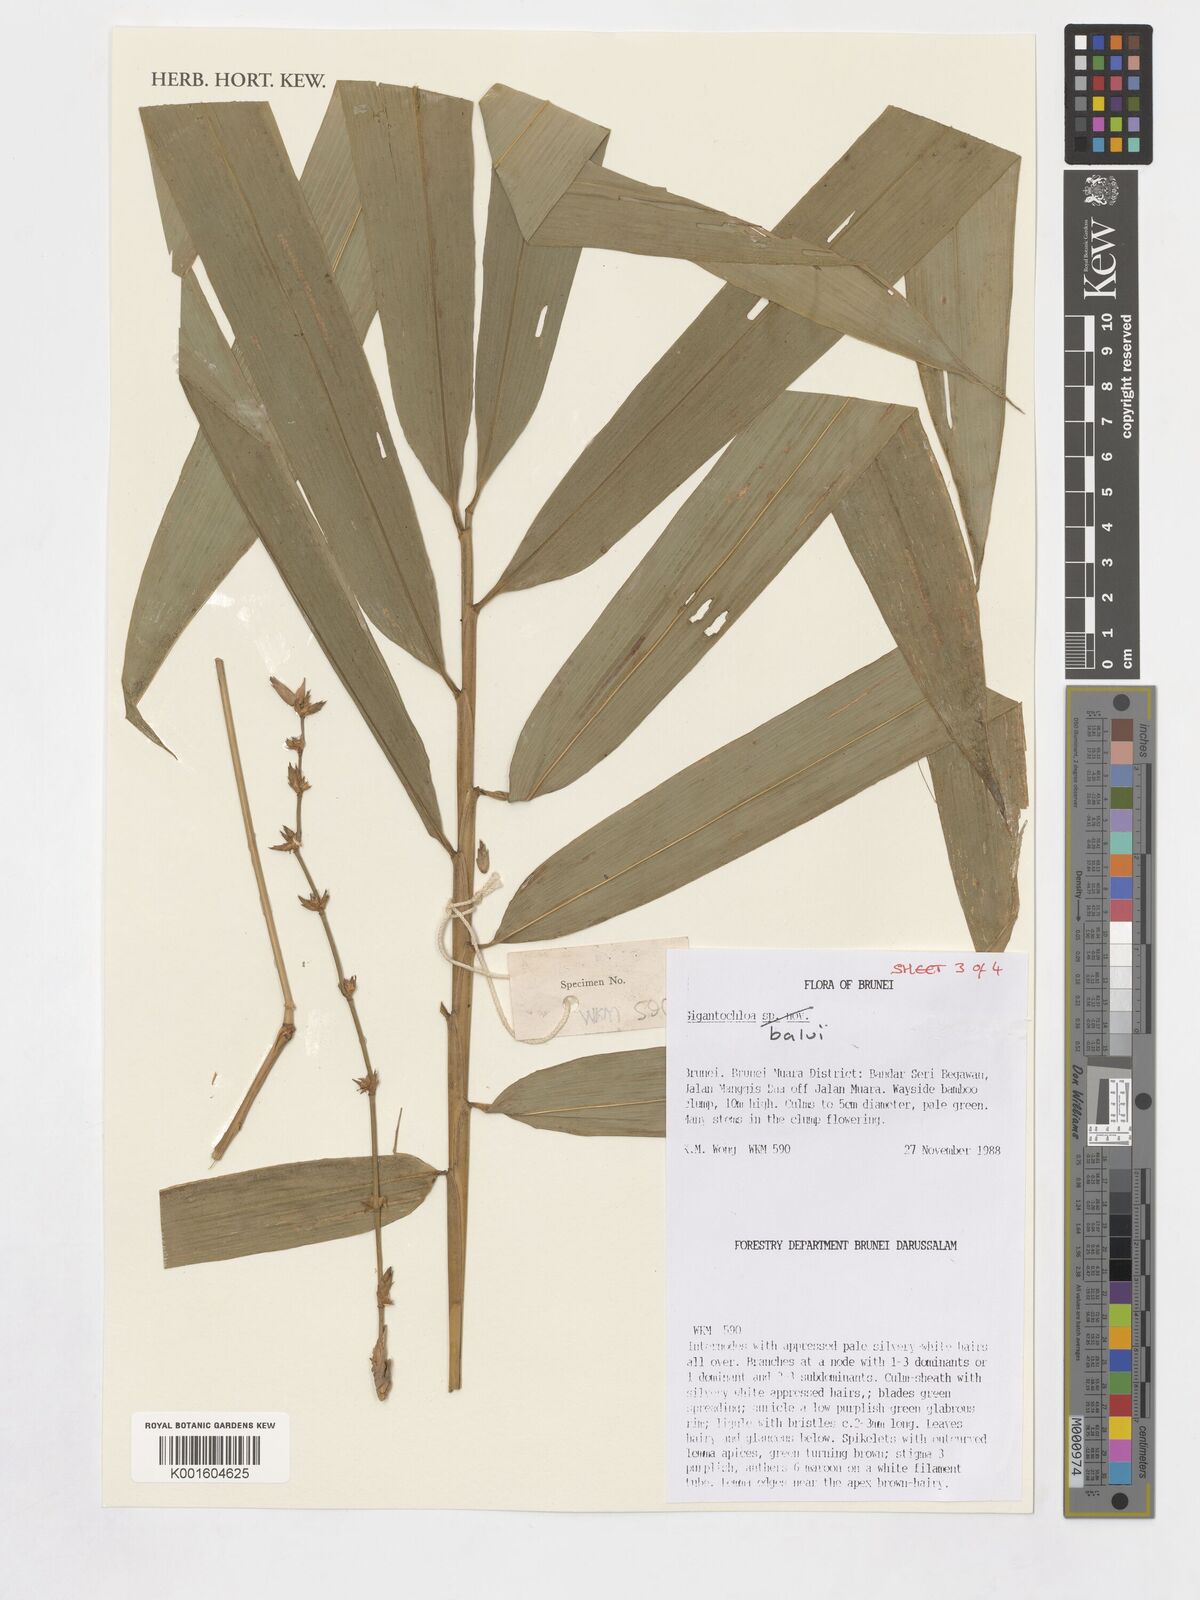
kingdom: Plantae
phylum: Tracheophyta
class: Liliopsida
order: Poales
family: Poaceae
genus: Gigantochloa
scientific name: Gigantochloa balui
